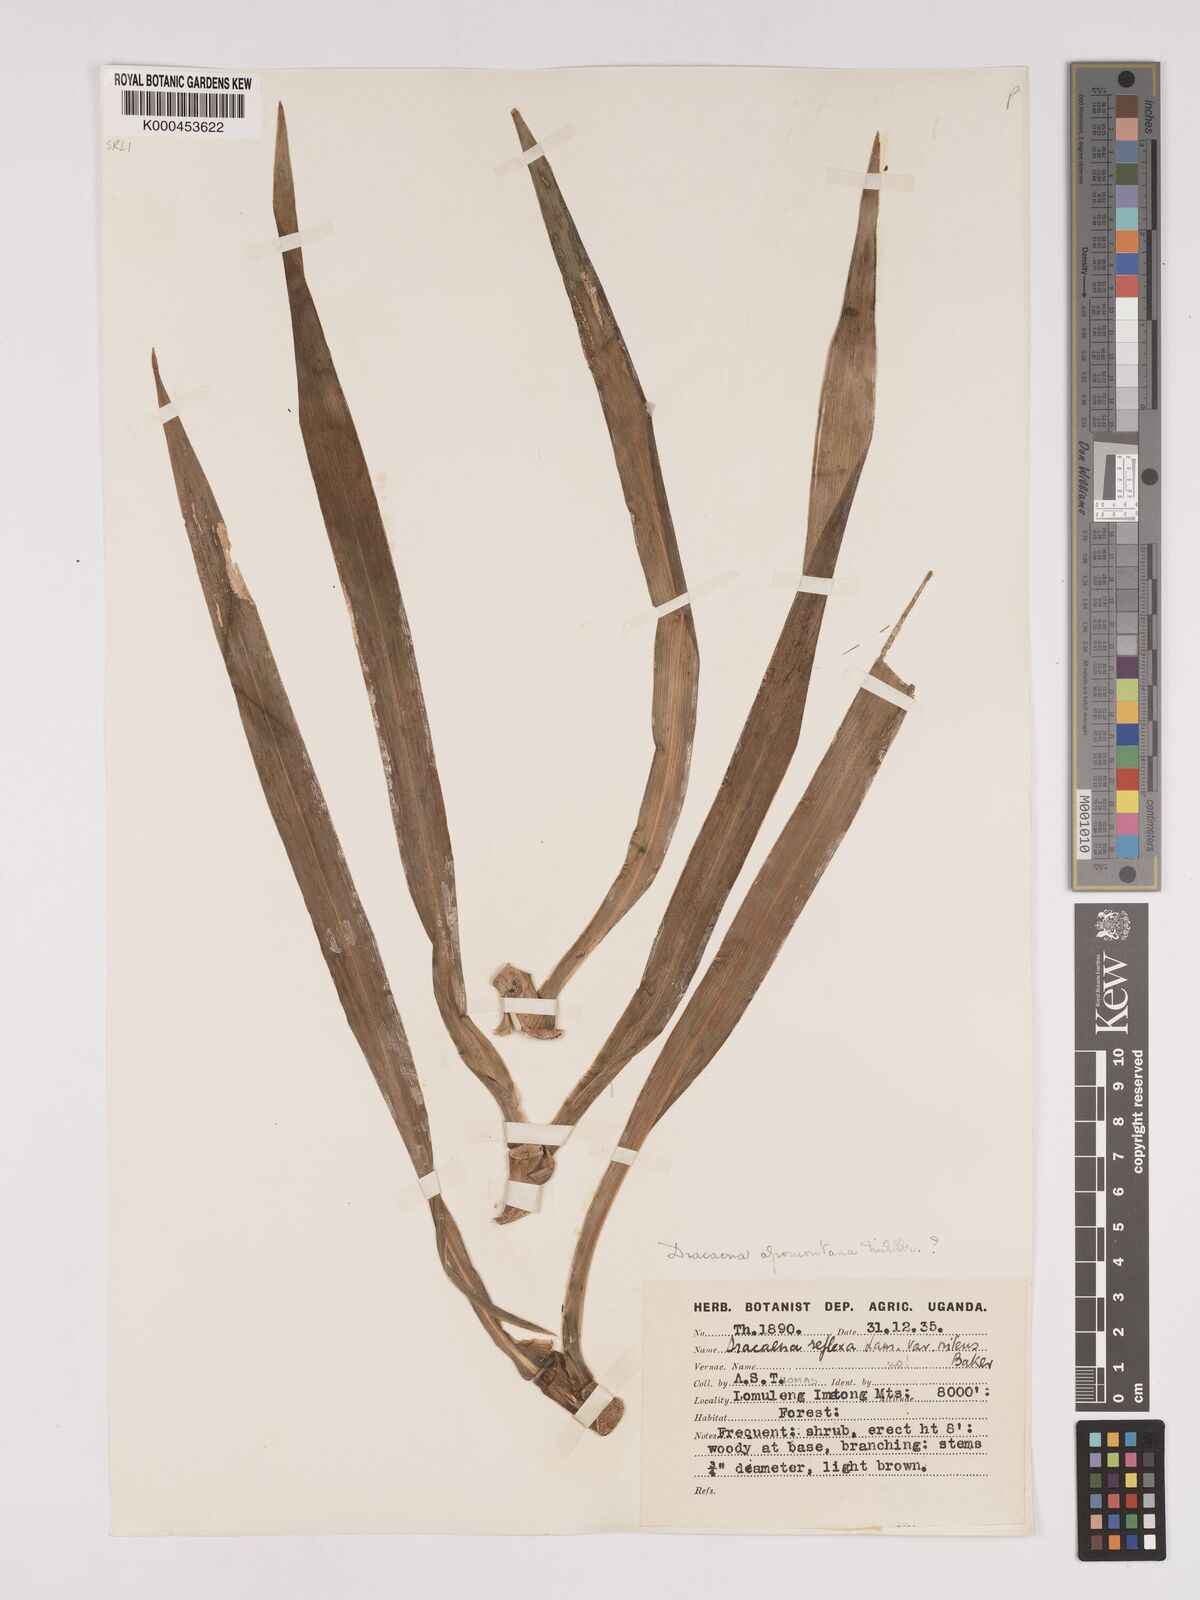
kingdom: Plantae
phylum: Tracheophyta
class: Liliopsida
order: Asparagales
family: Asparagaceae
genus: Dracaena
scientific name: Dracaena afromontana
